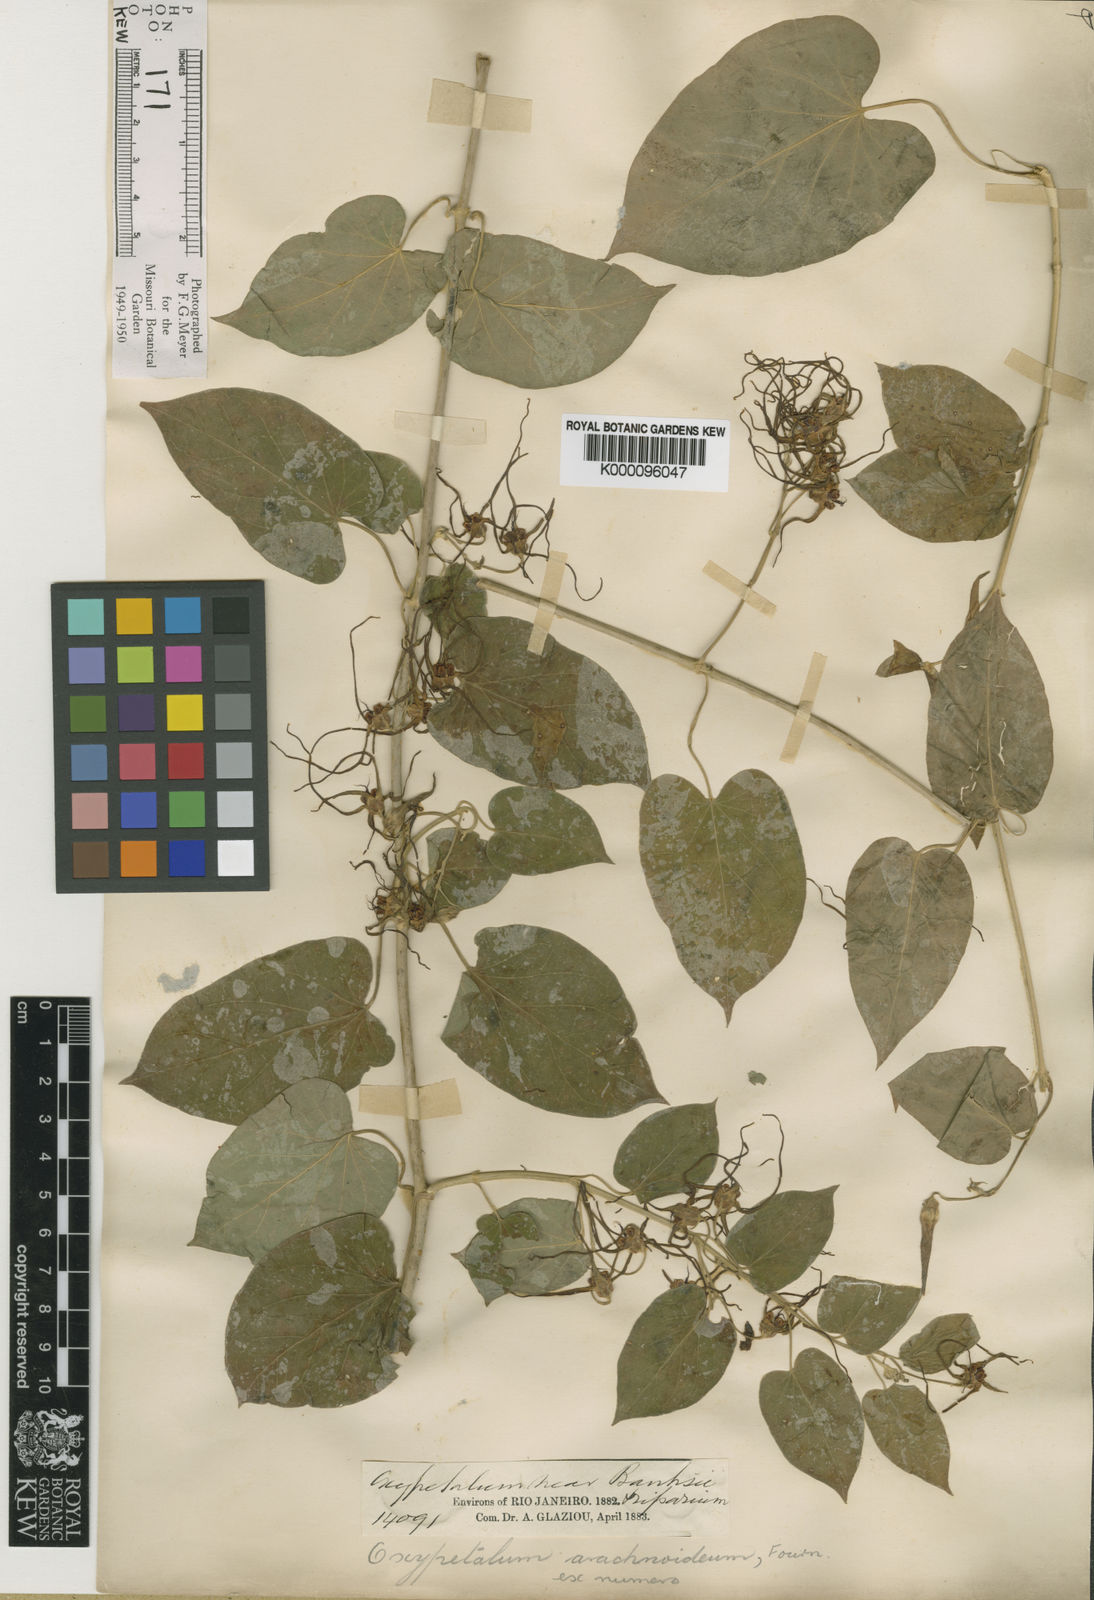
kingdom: Plantae
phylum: Tracheophyta
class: Magnoliopsida
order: Gentianales
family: Apocynaceae
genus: Oxypetalum
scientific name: Oxypetalum arachnoideum
